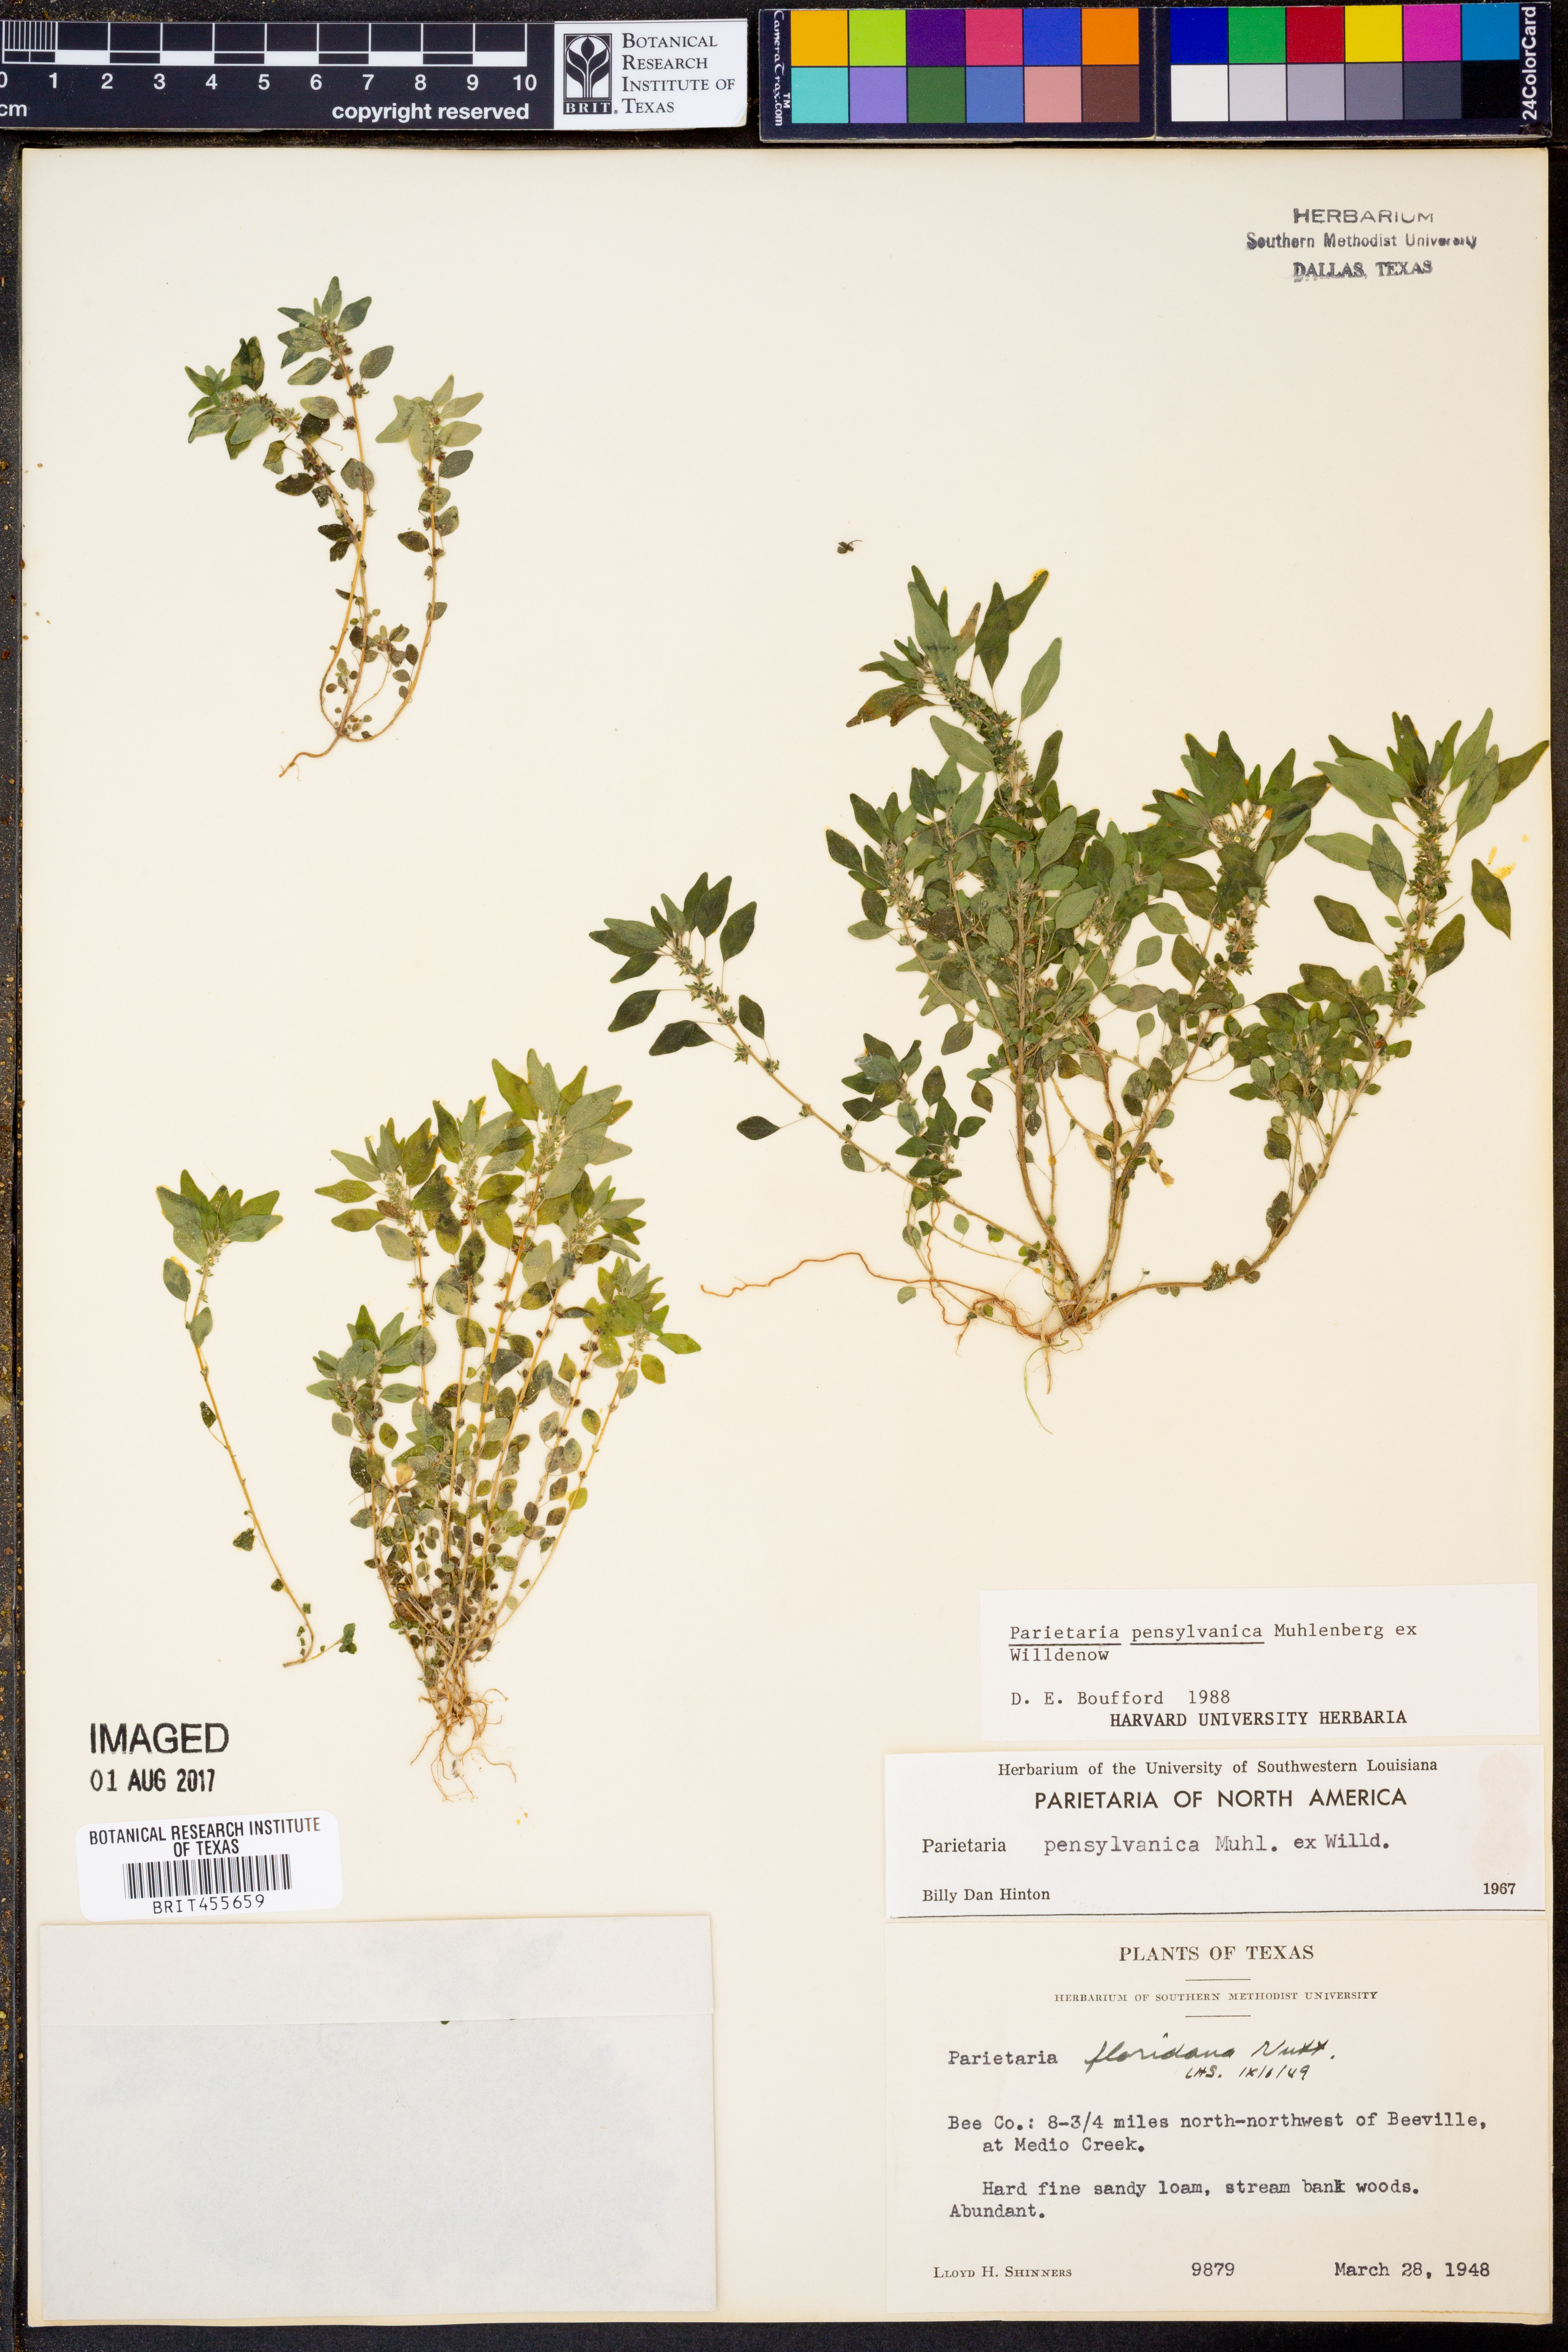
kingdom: Plantae
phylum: Tracheophyta
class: Magnoliopsida
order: Rosales
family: Urticaceae
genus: Parietaria
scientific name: Parietaria pensylvanica
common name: Pennsylvania pellitory
